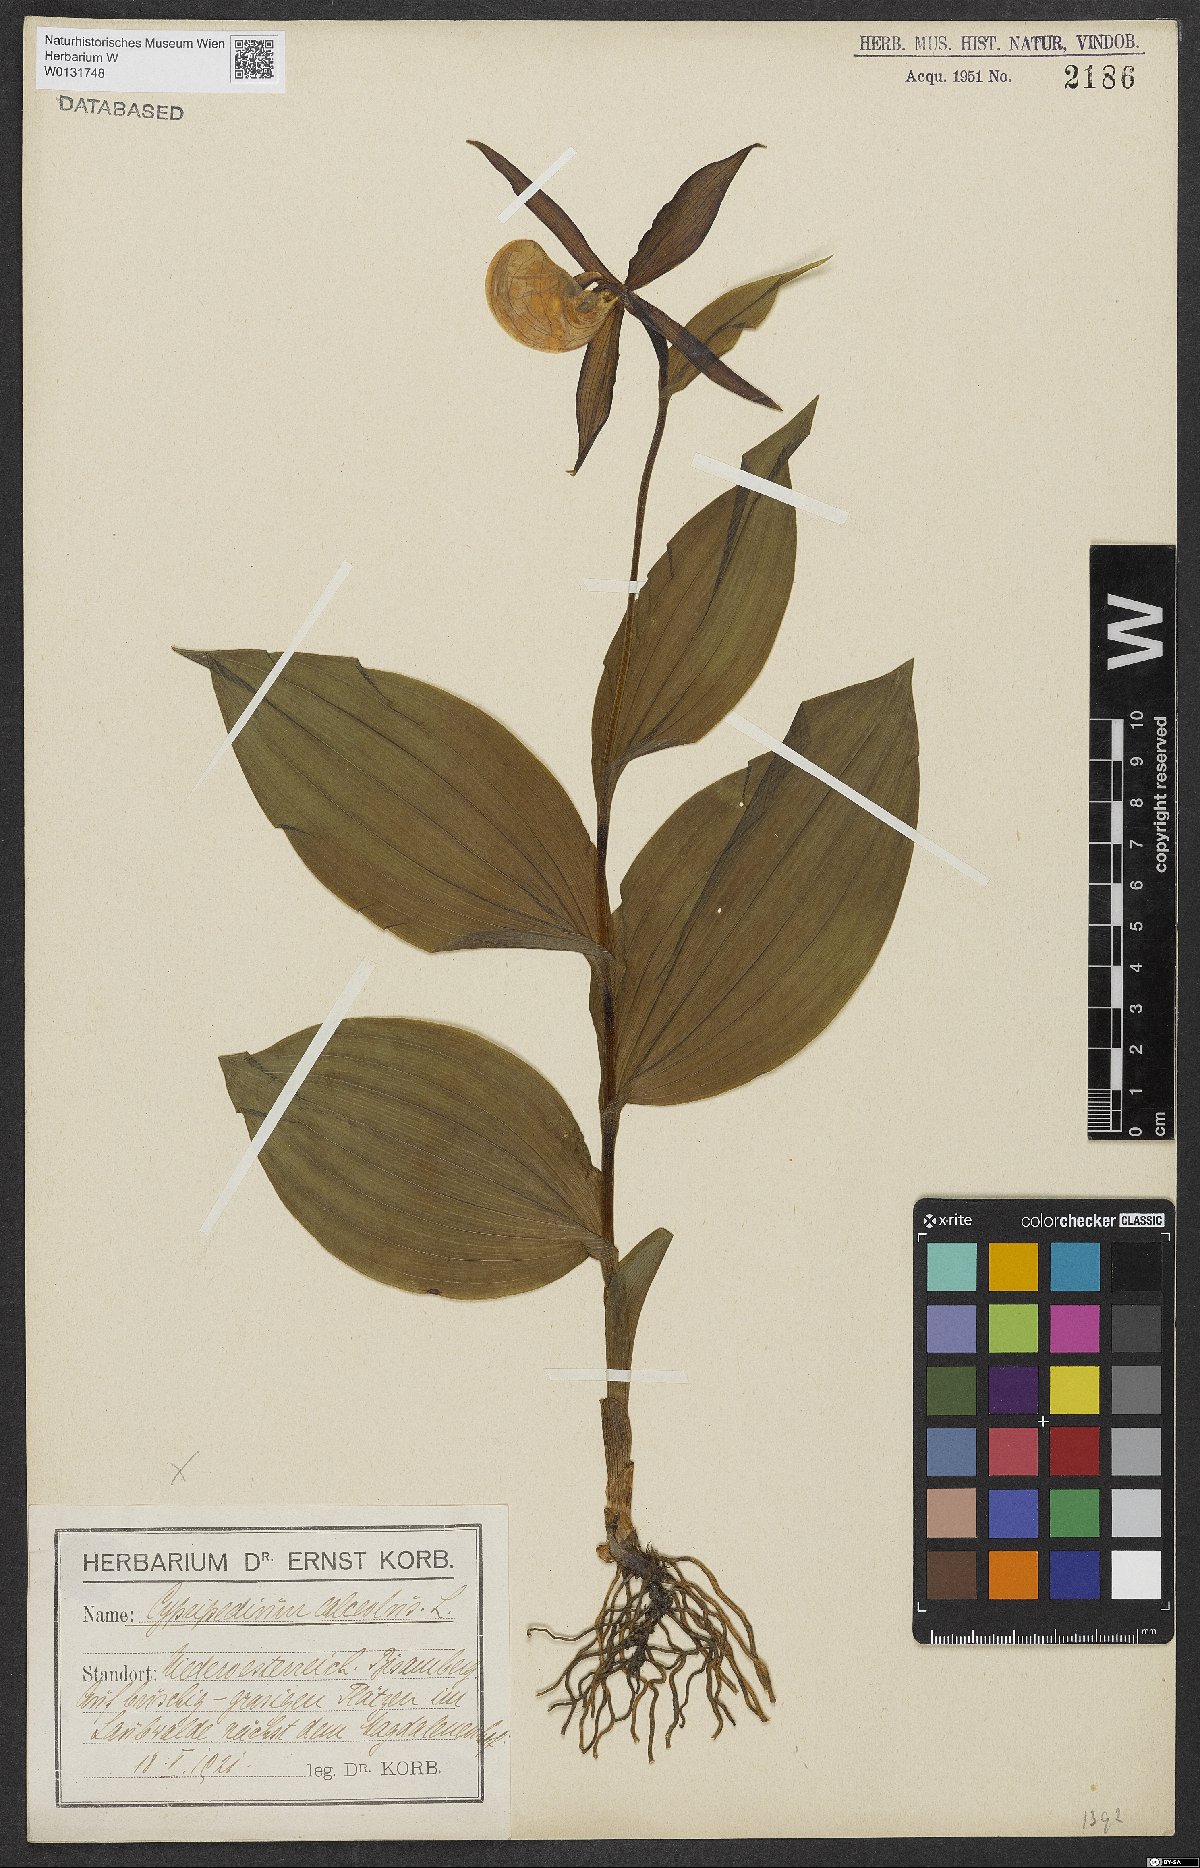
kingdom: Plantae
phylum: Tracheophyta
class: Liliopsida
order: Asparagales
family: Orchidaceae
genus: Cypripedium
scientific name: Cypripedium calceolus
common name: Lady's-slipper
